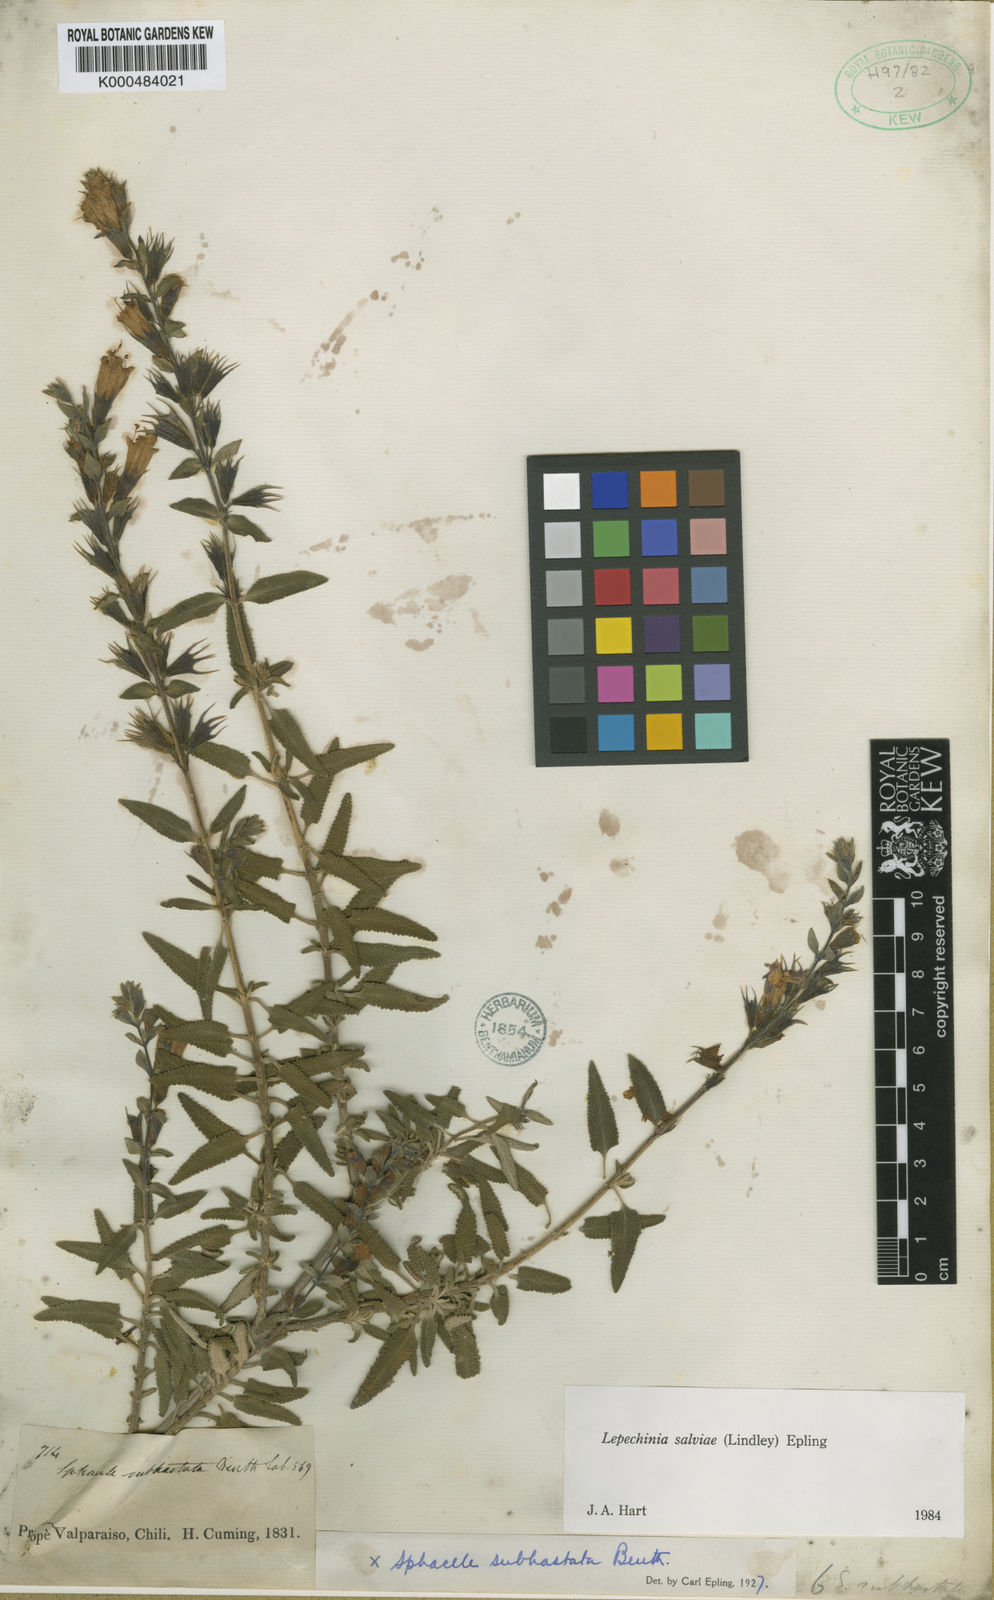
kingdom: Plantae
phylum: Tracheophyta
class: Magnoliopsida
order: Lamiales
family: Lamiaceae
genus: Lepechinia
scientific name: Lepechinia salviae
